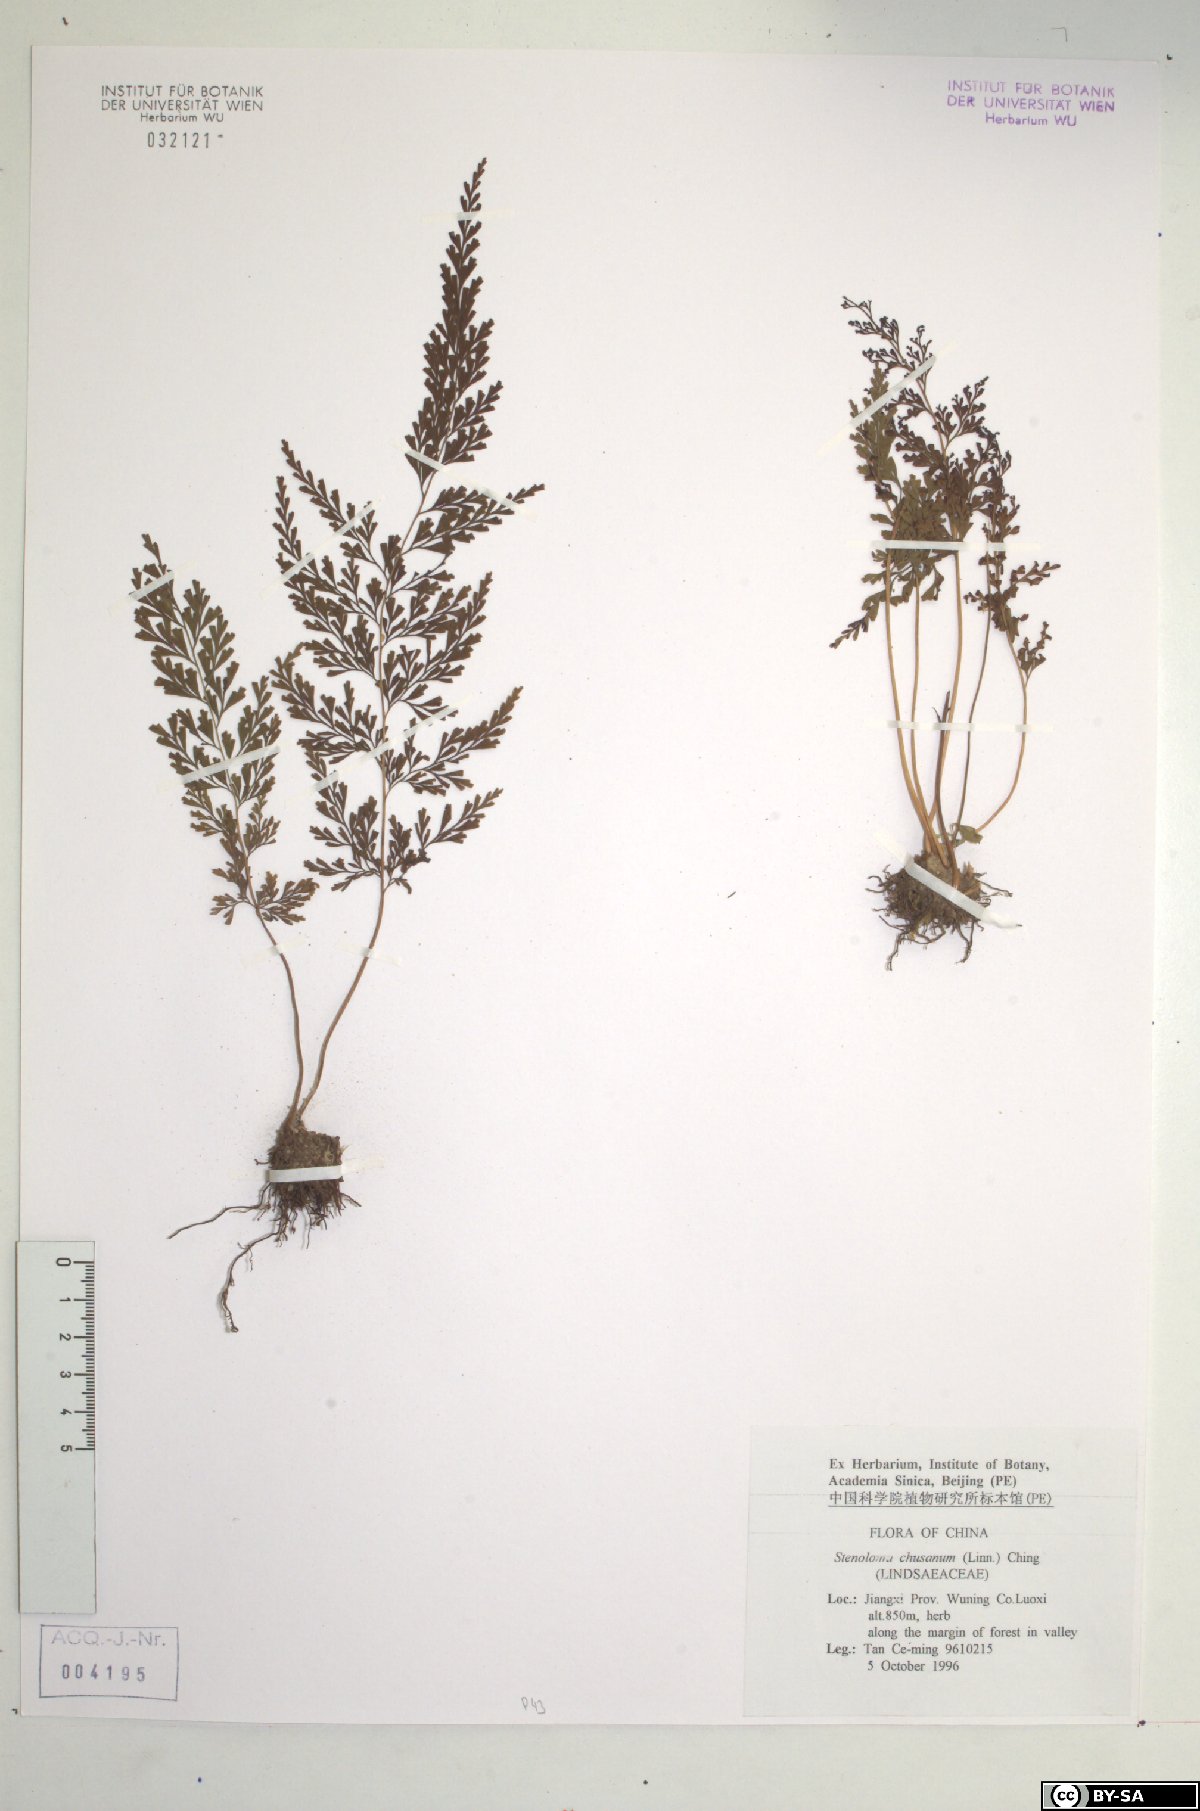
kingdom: Plantae
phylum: Tracheophyta
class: Polypodiopsida
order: Polypodiales
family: Lindsaeaceae
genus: Odontosoria
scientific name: Odontosoria chinensis
